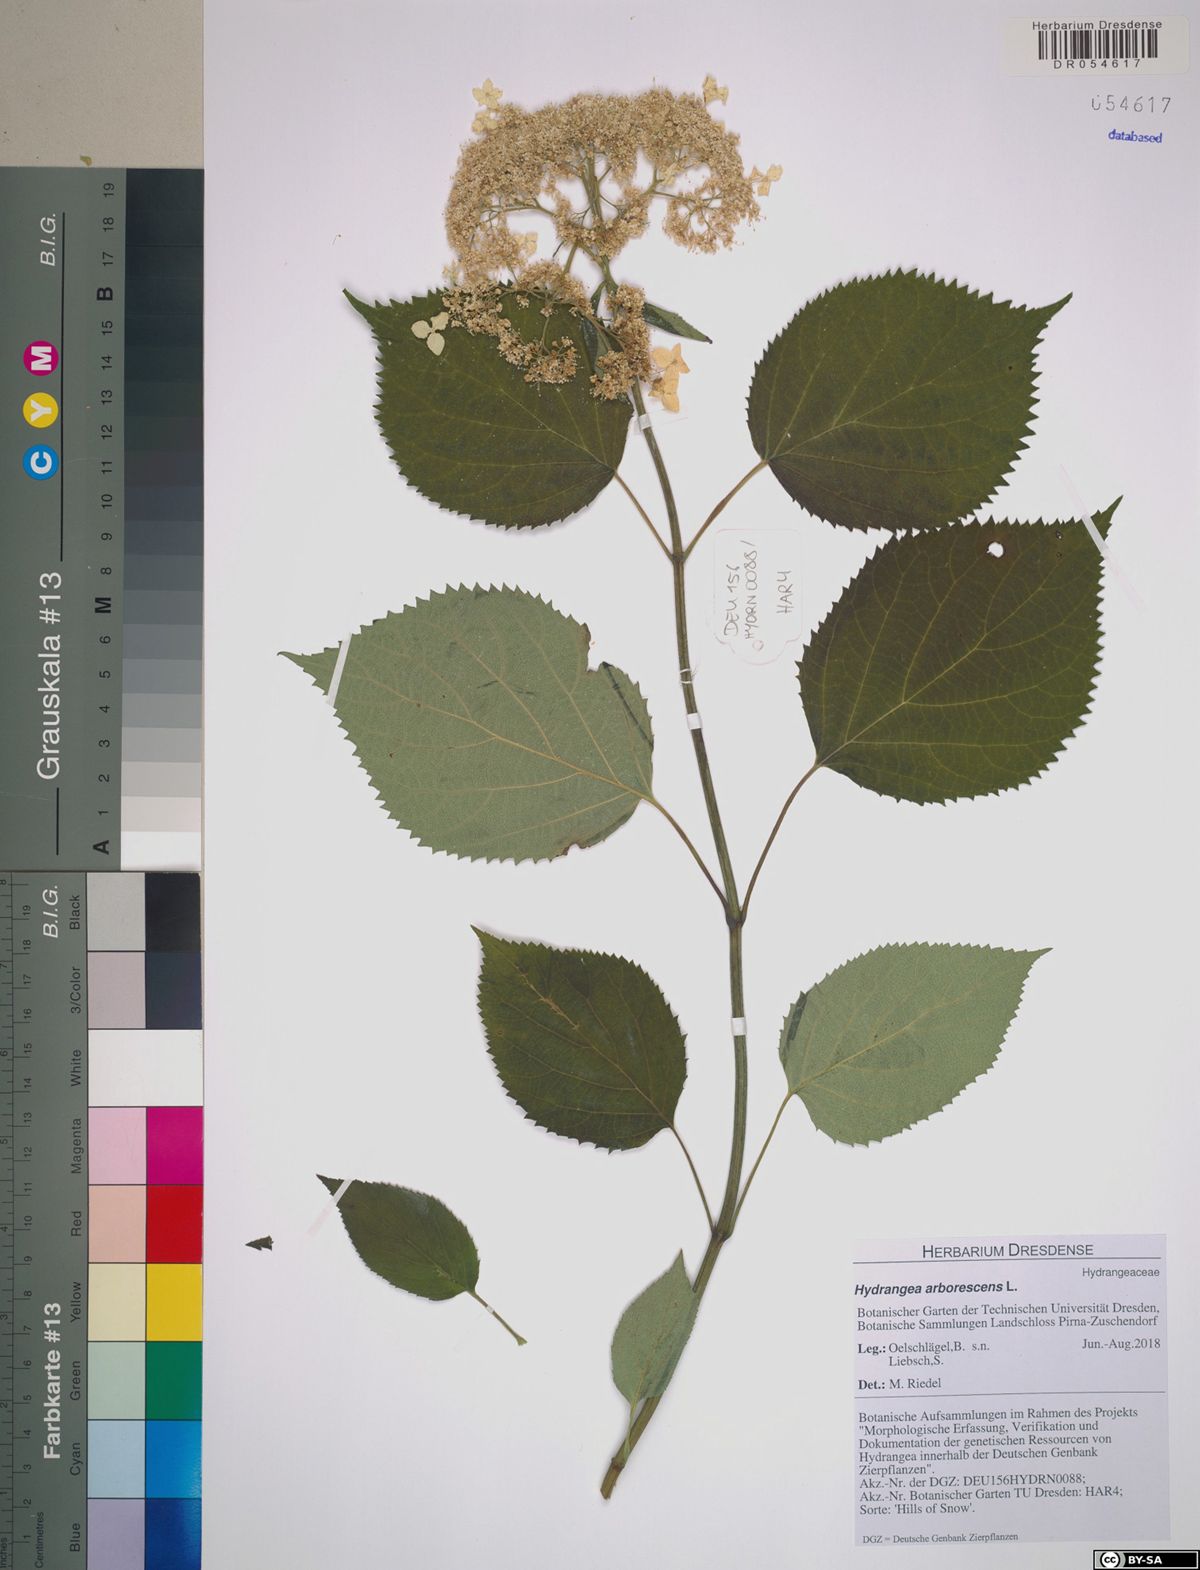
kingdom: Plantae
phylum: Tracheophyta
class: Magnoliopsida
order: Cornales
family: Hydrangeaceae
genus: Hydrangea
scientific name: Hydrangea arborescens
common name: Sevenbark
